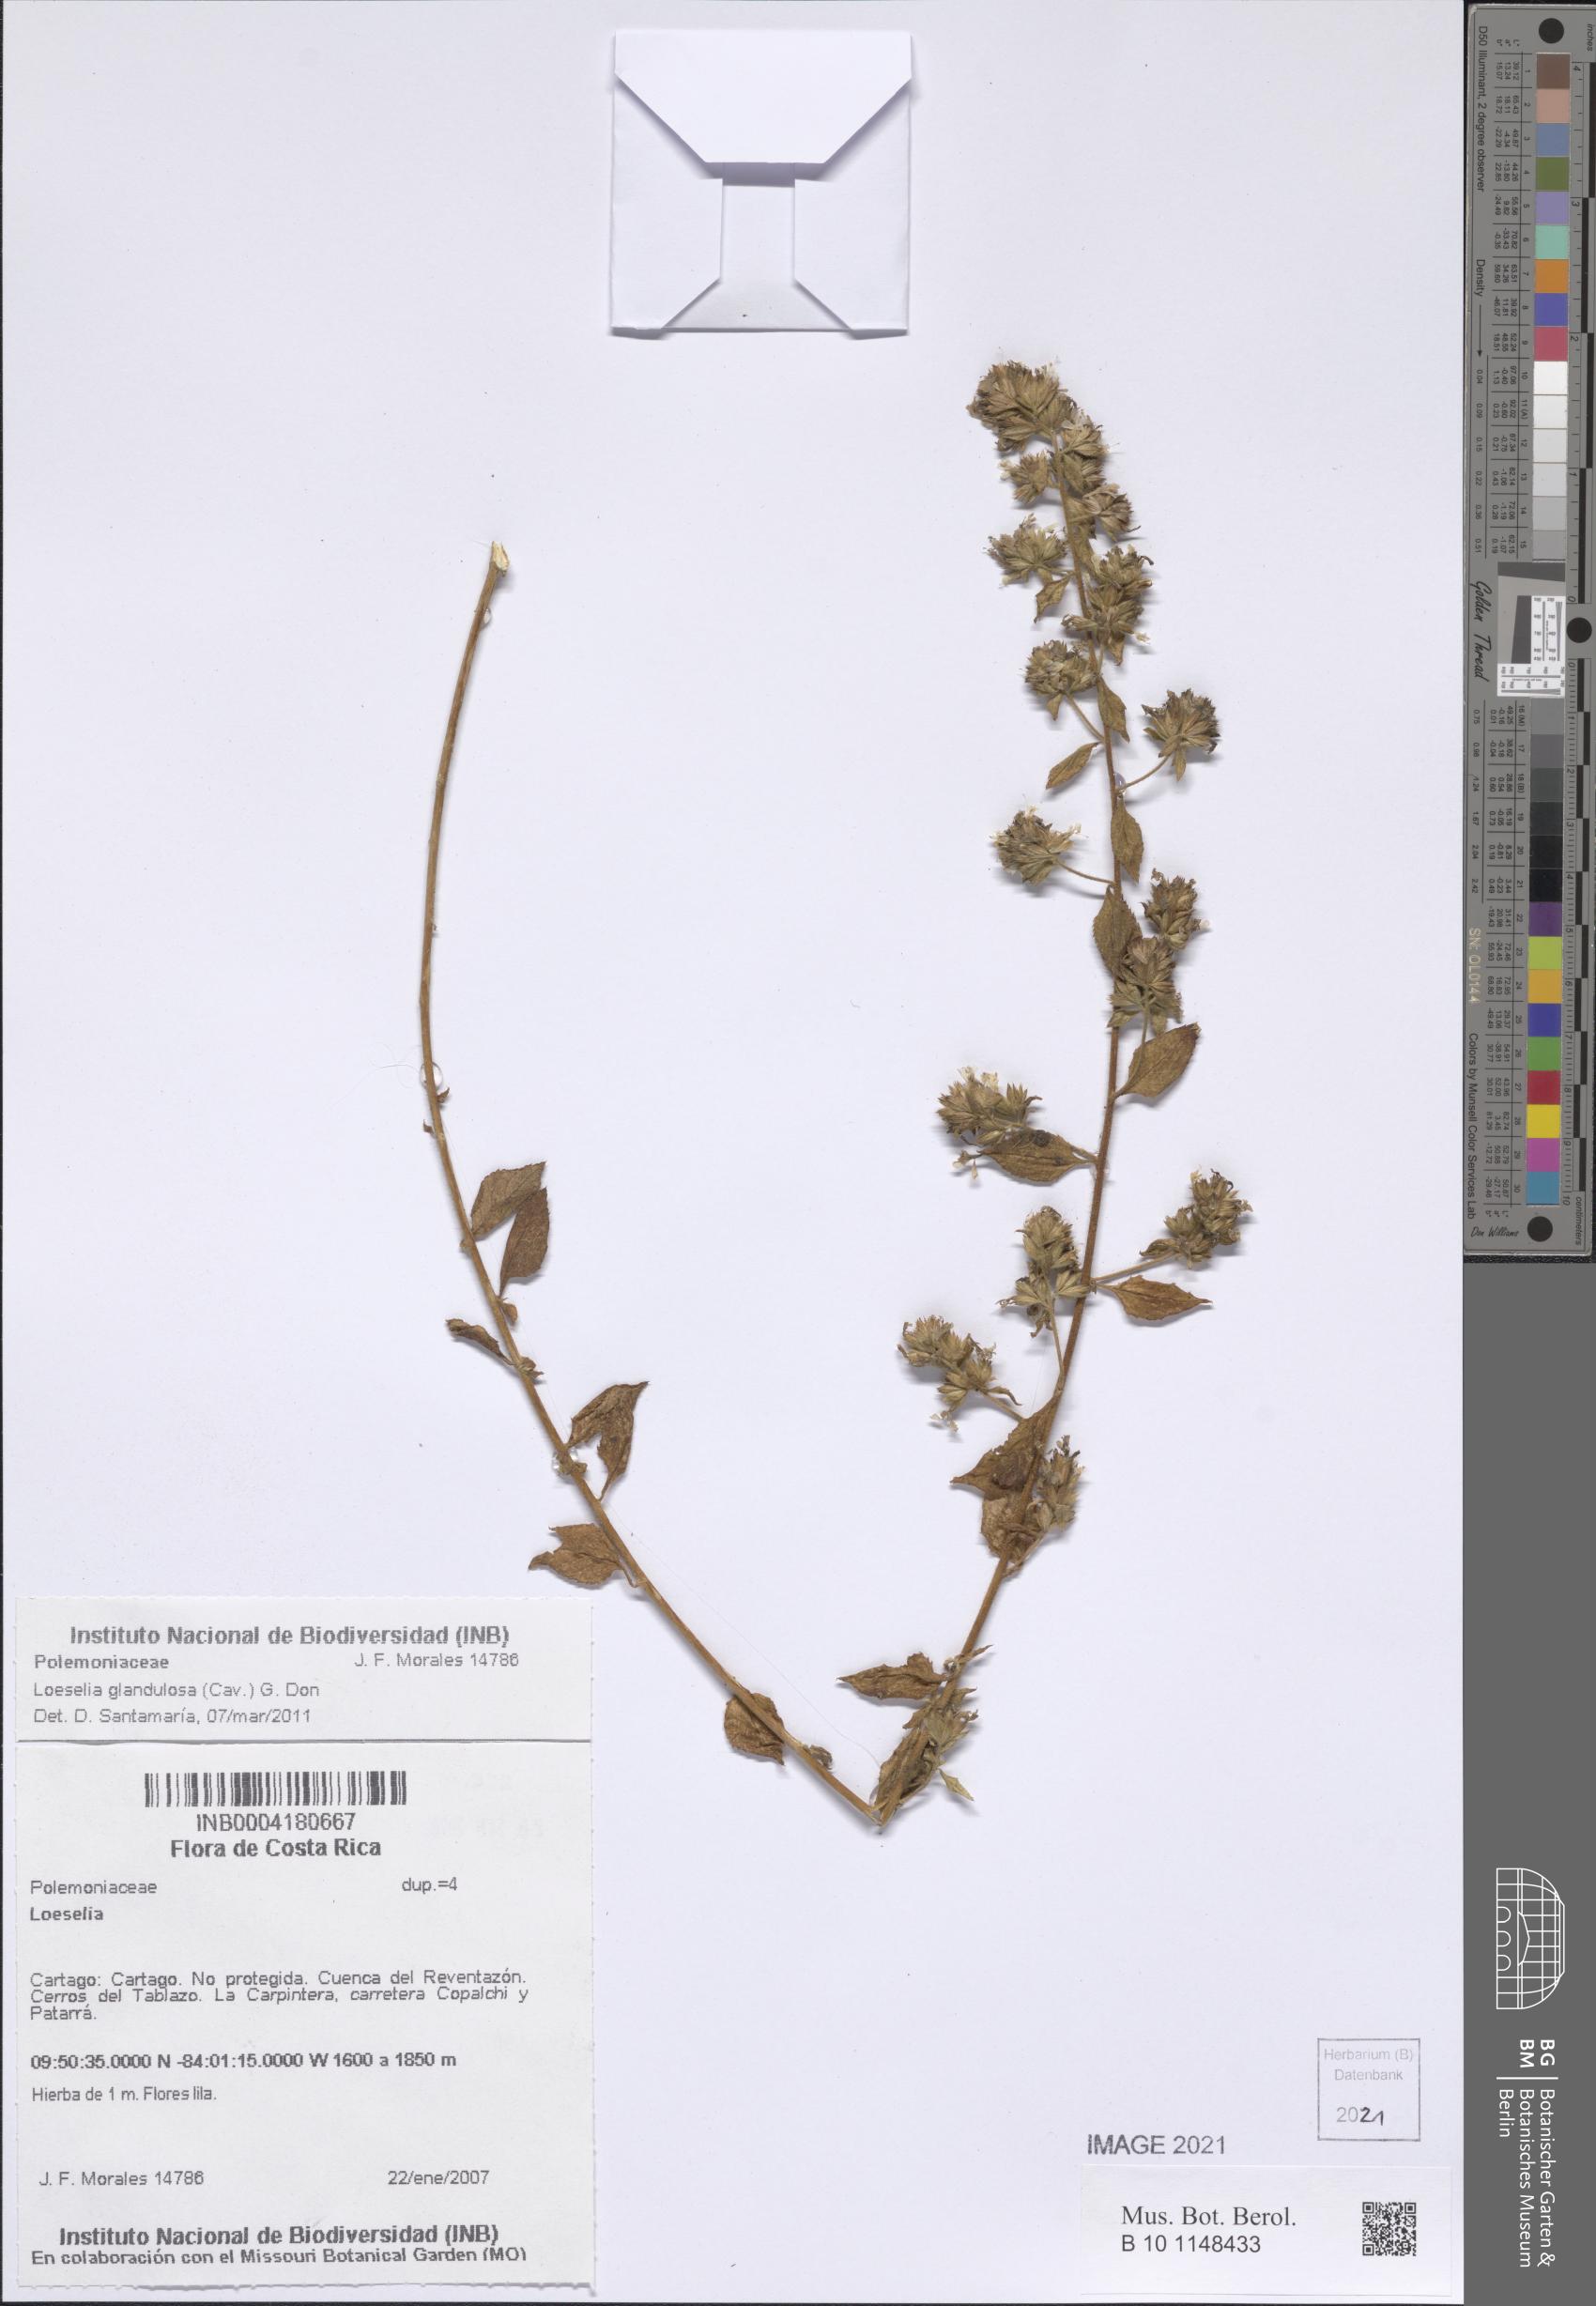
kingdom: Plantae
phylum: Tracheophyta
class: Magnoliopsida
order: Ericales
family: Polemoniaceae
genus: Loeselia
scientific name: Loeselia glandulosa
